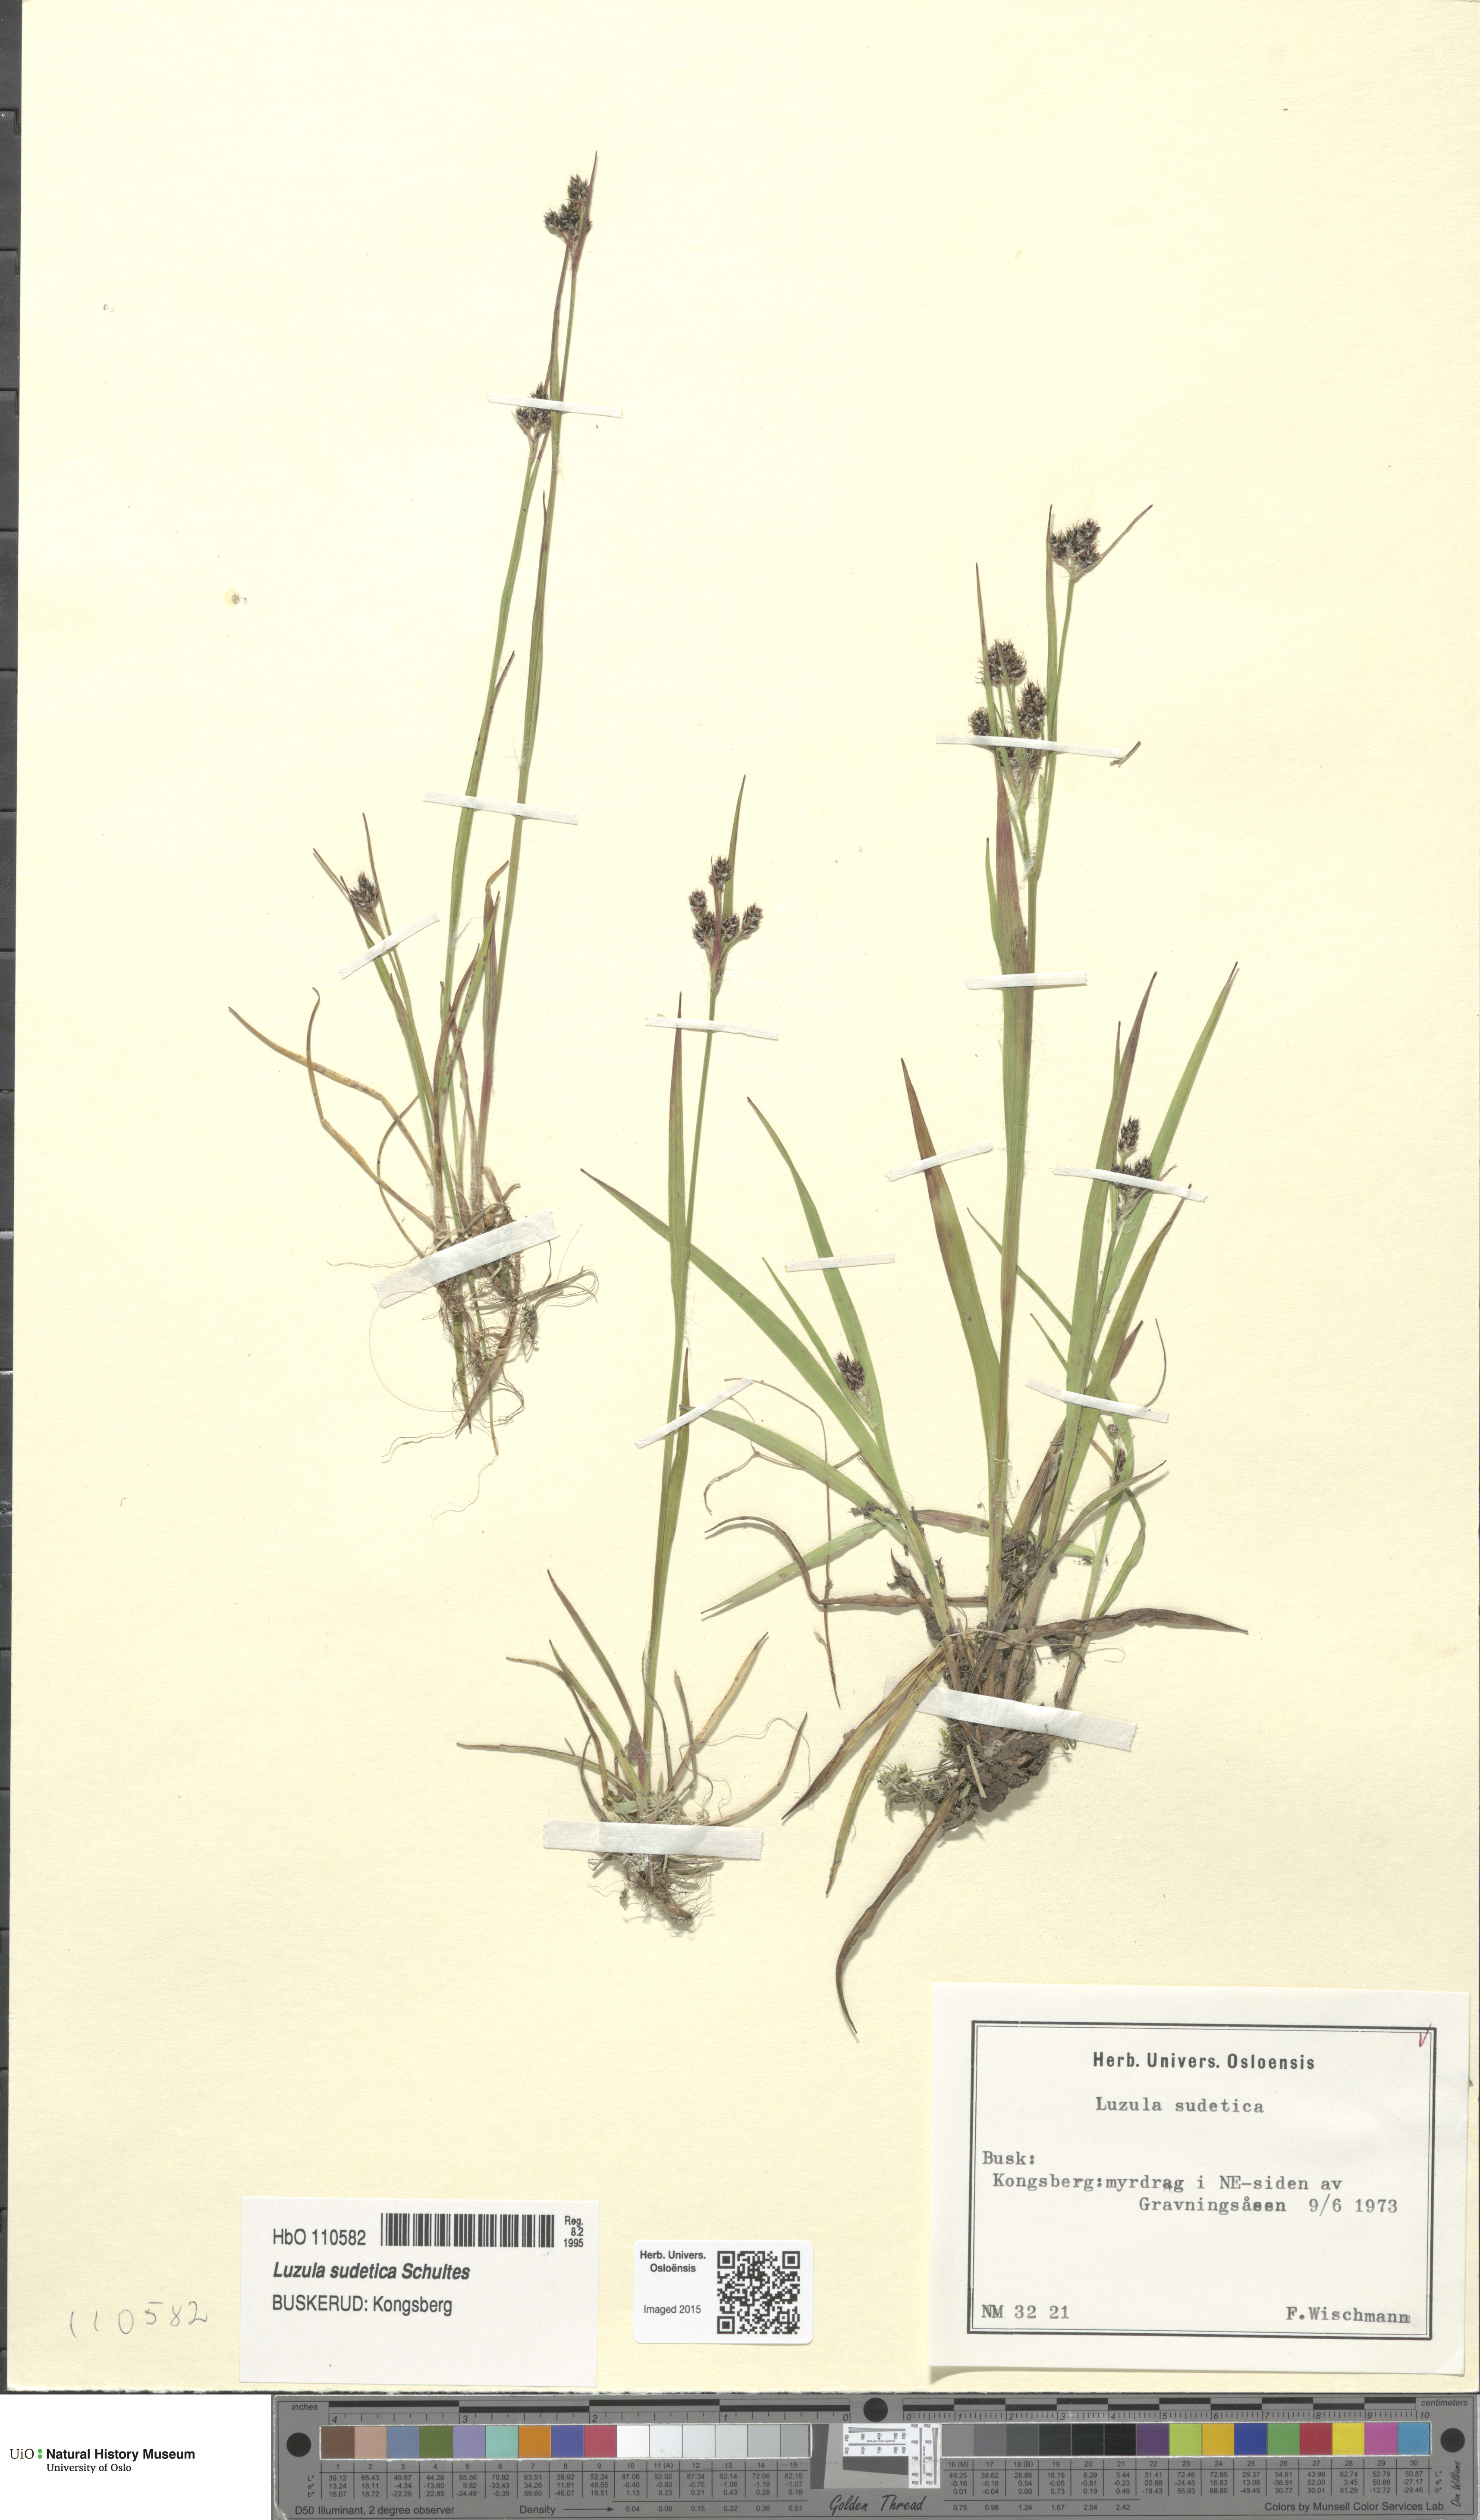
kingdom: Plantae
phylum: Tracheophyta
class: Liliopsida
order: Poales
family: Juncaceae
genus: Luzula
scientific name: Luzula sudetica
